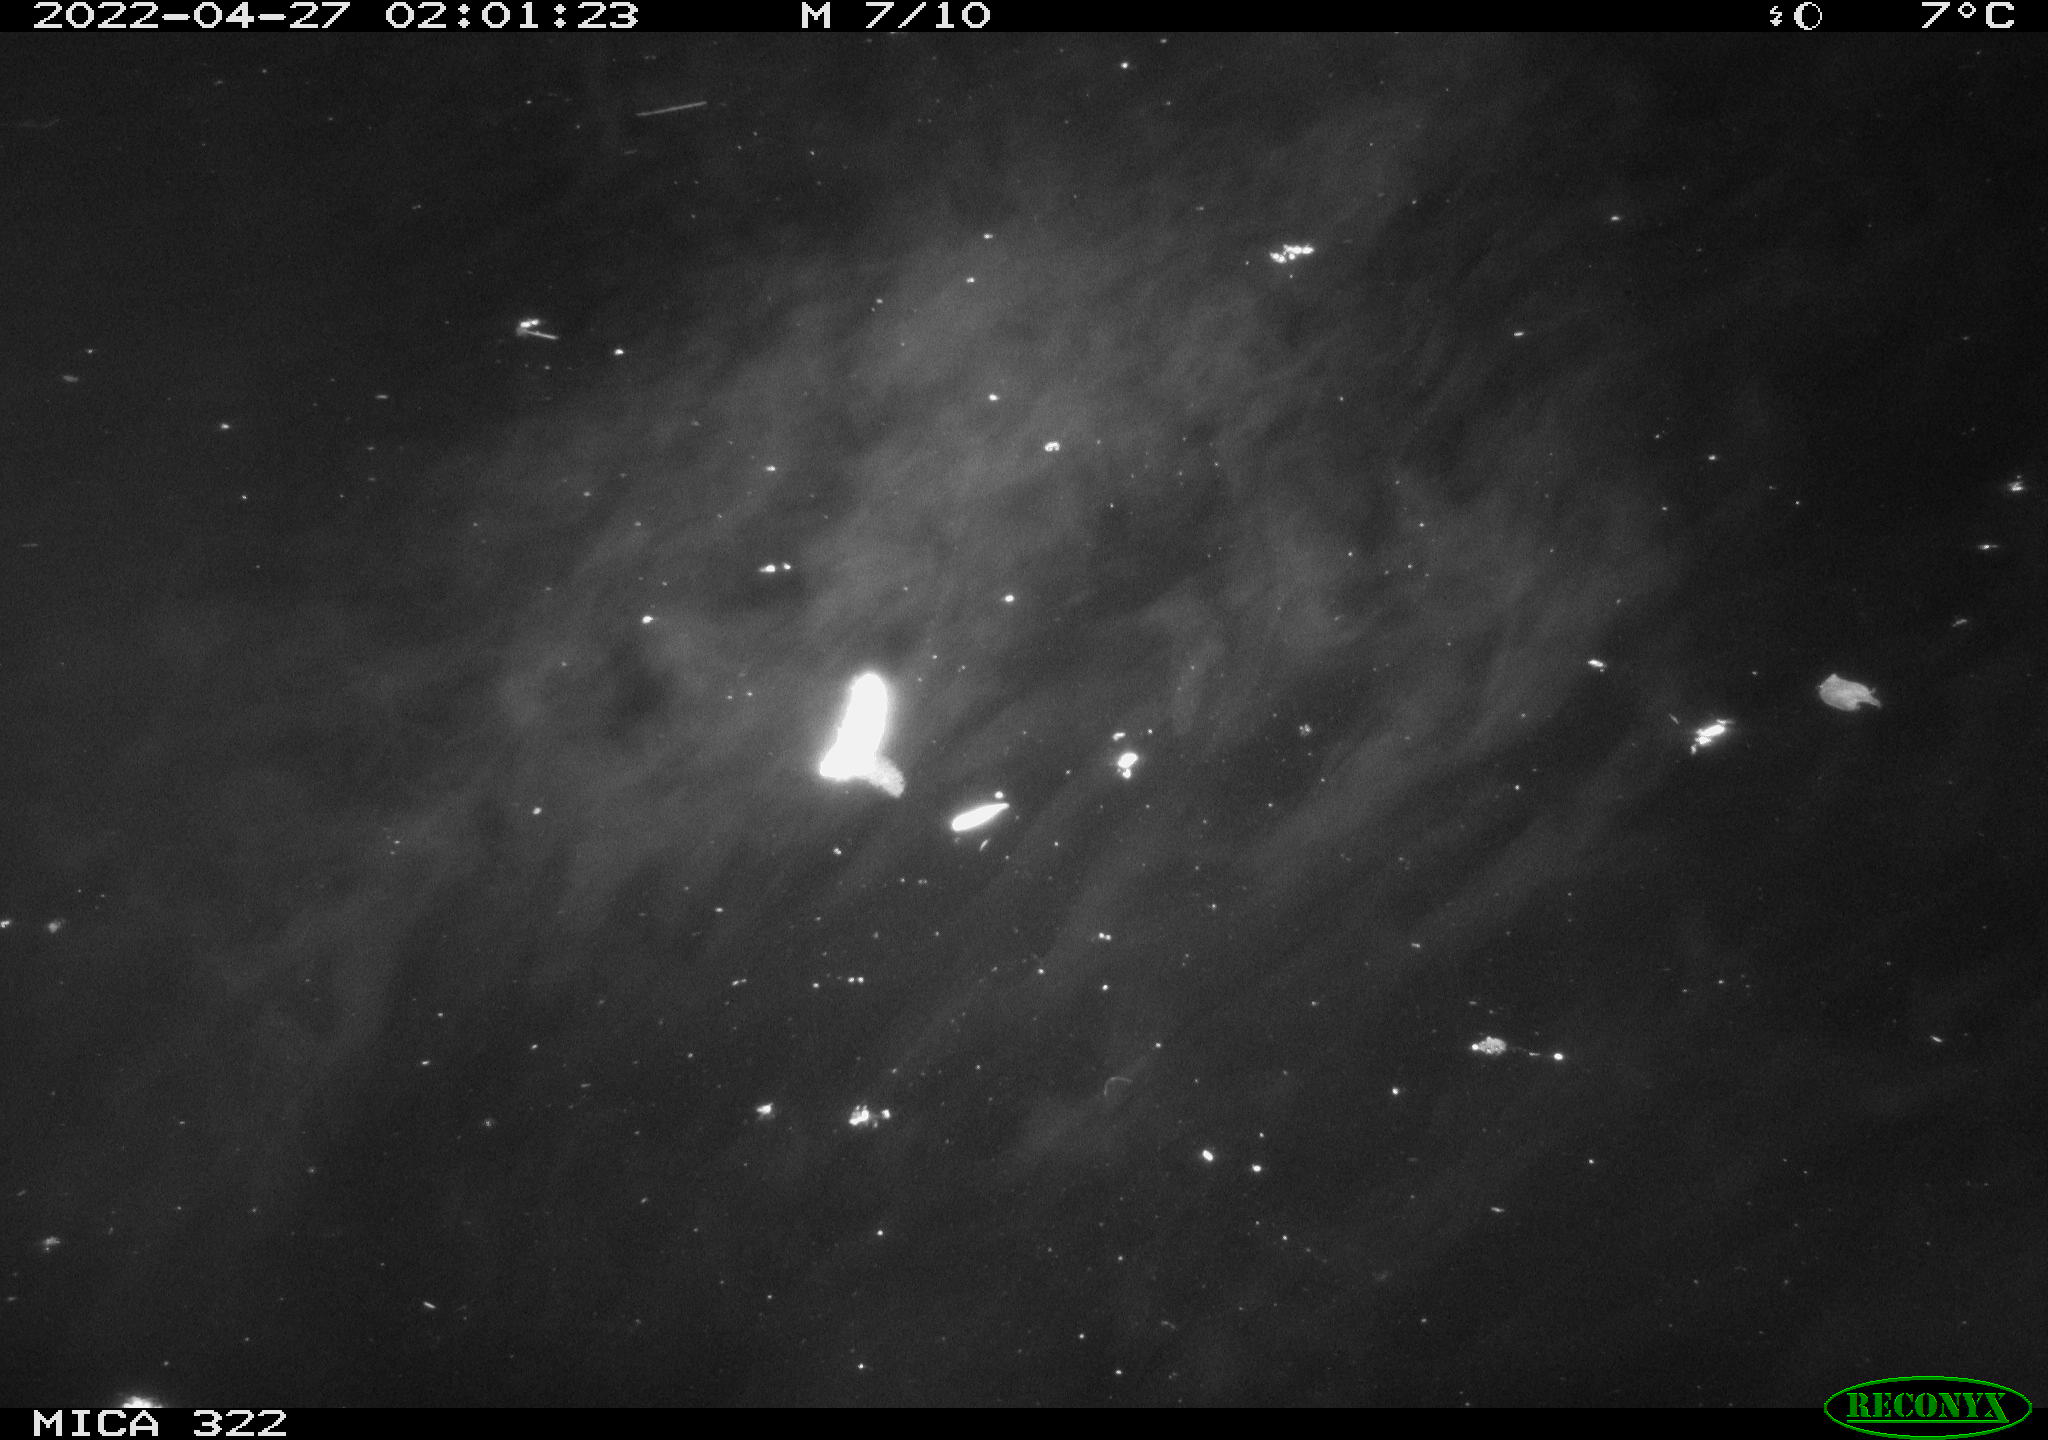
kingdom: Animalia
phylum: Chordata
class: Mammalia
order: Rodentia
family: Muridae
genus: Rattus
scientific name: Rattus norvegicus
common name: Brown rat
